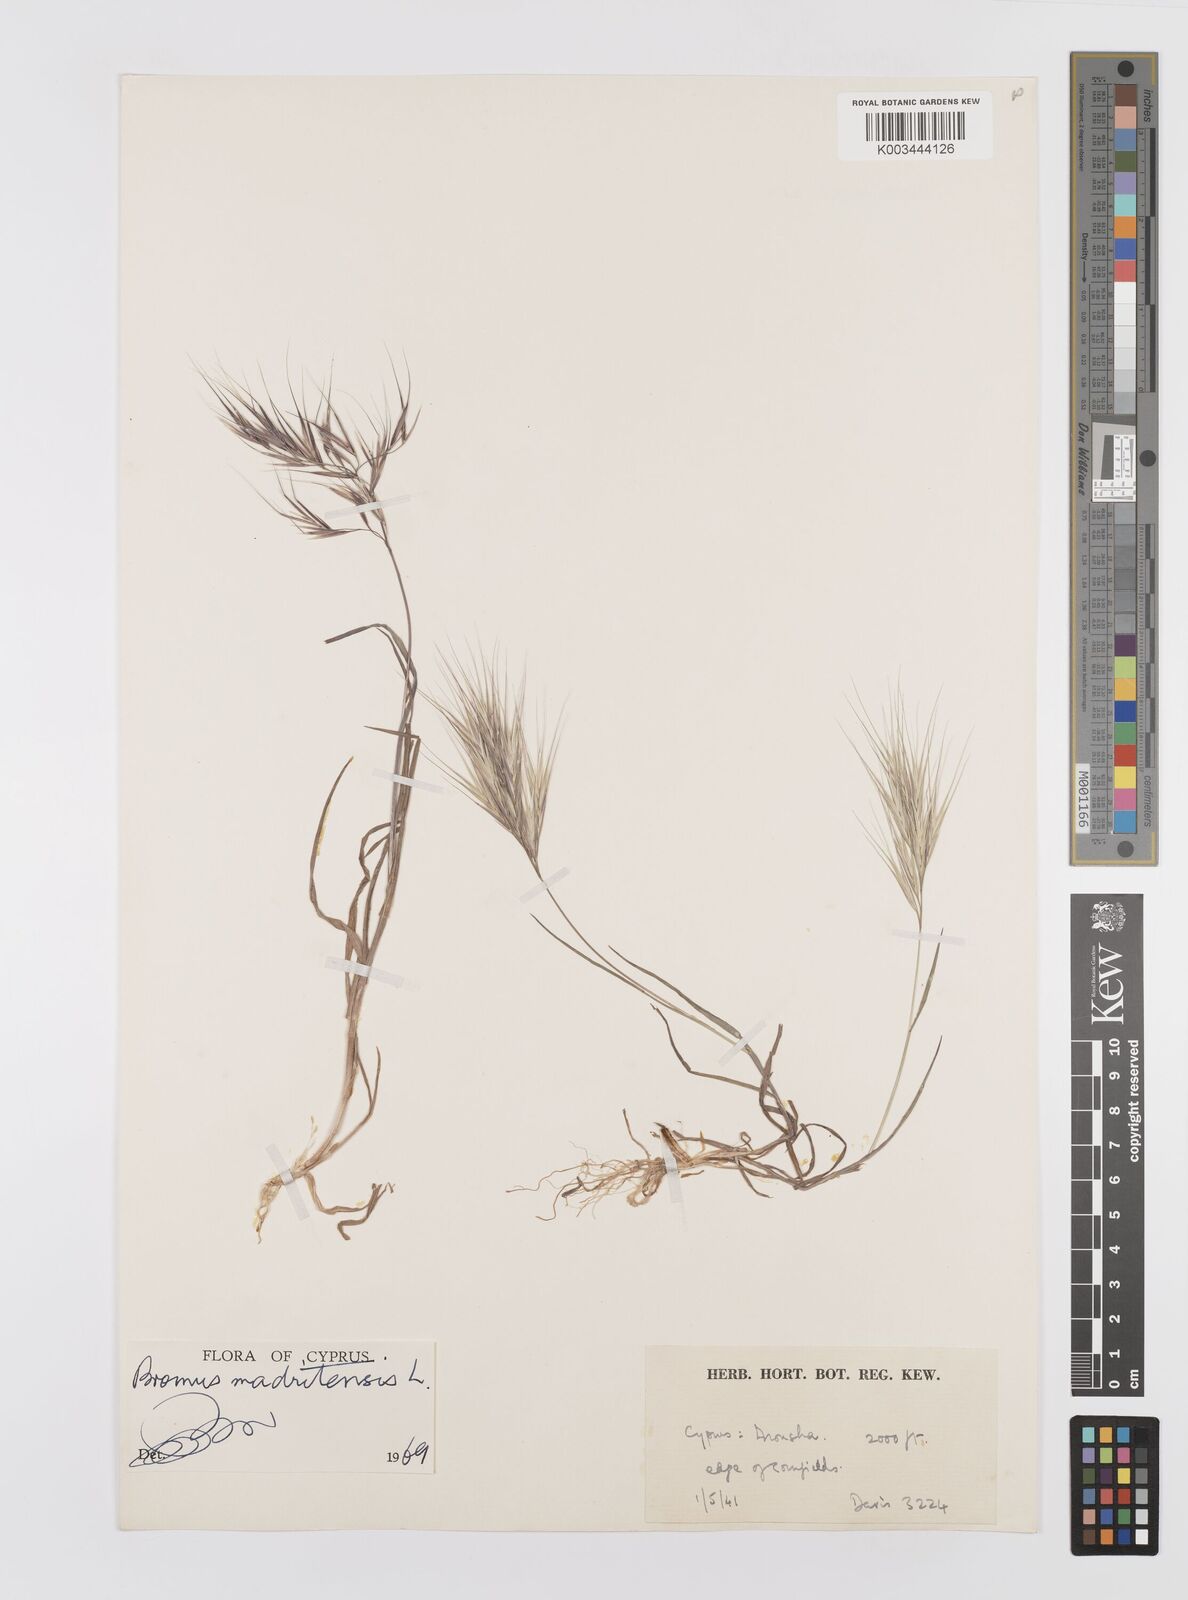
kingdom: Plantae
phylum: Tracheophyta
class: Liliopsida
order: Poales
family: Poaceae
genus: Bromus
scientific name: Bromus madritensis
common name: Compact brome
